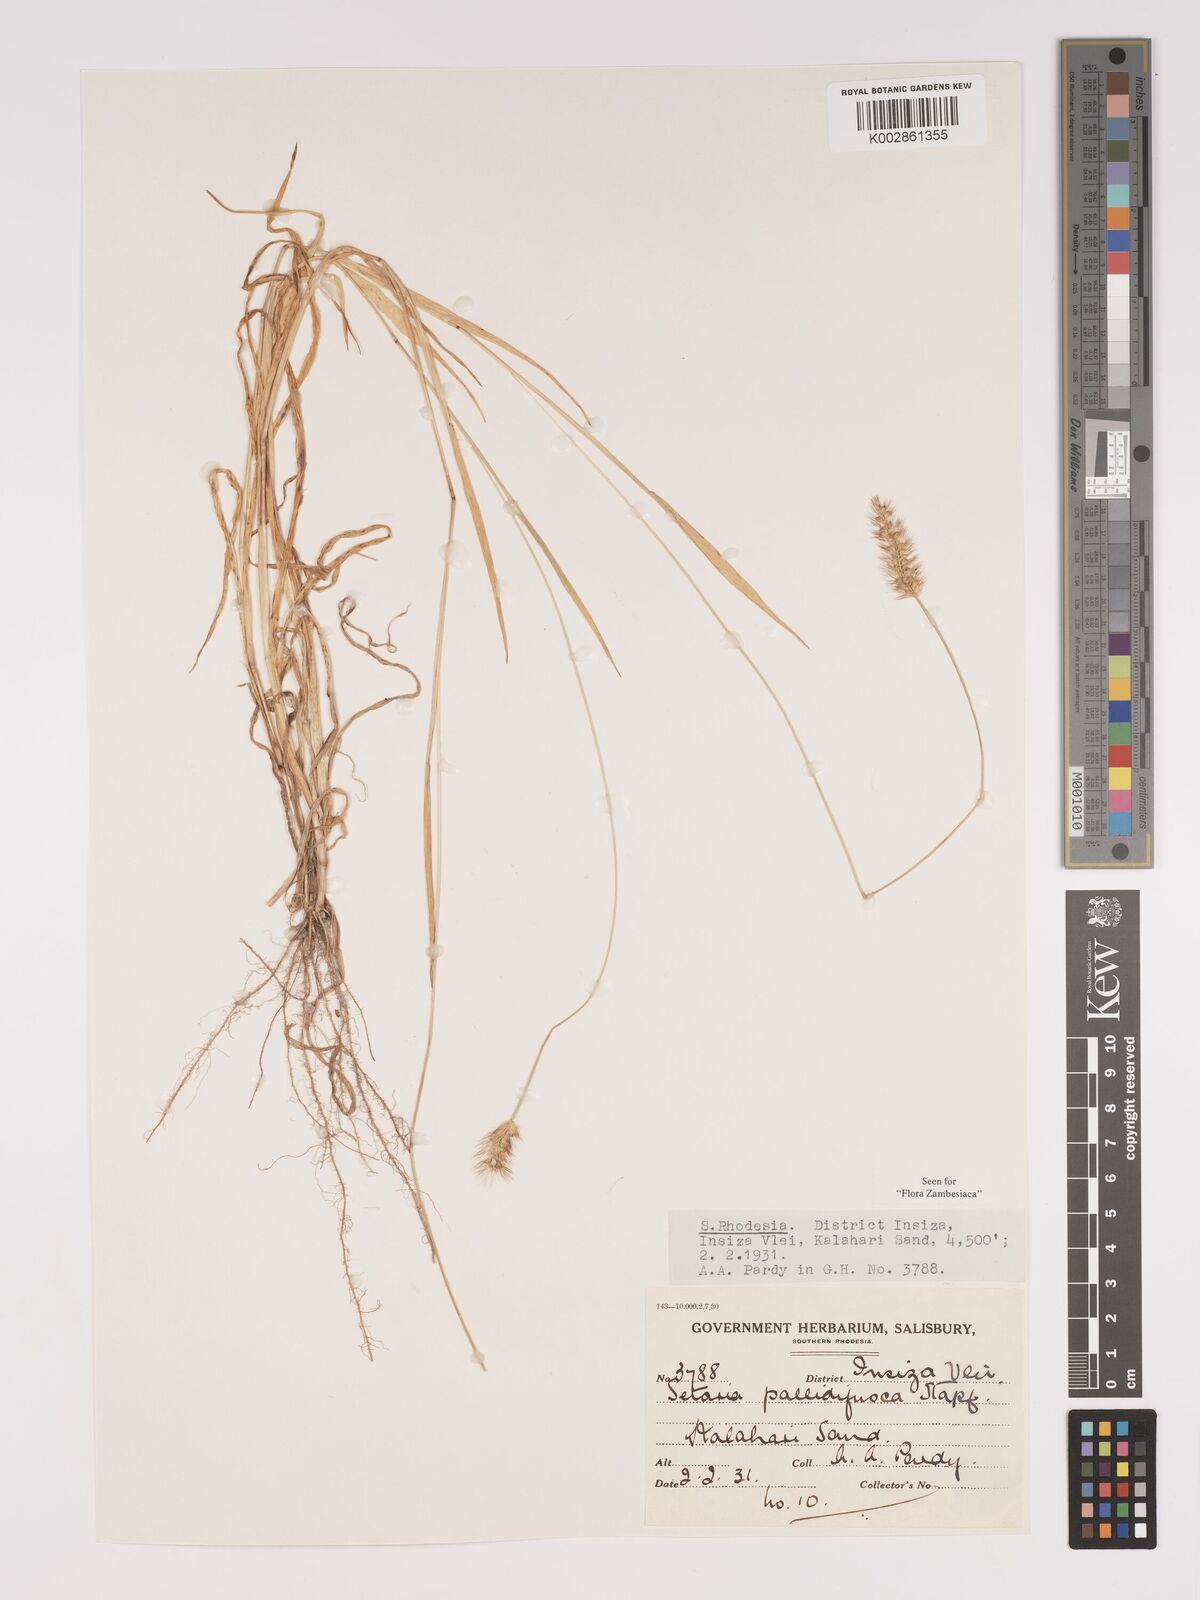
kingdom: Plantae
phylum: Tracheophyta
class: Liliopsida
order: Poales
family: Poaceae
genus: Setaria
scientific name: Setaria pumila
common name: Yellow bristle-grass
